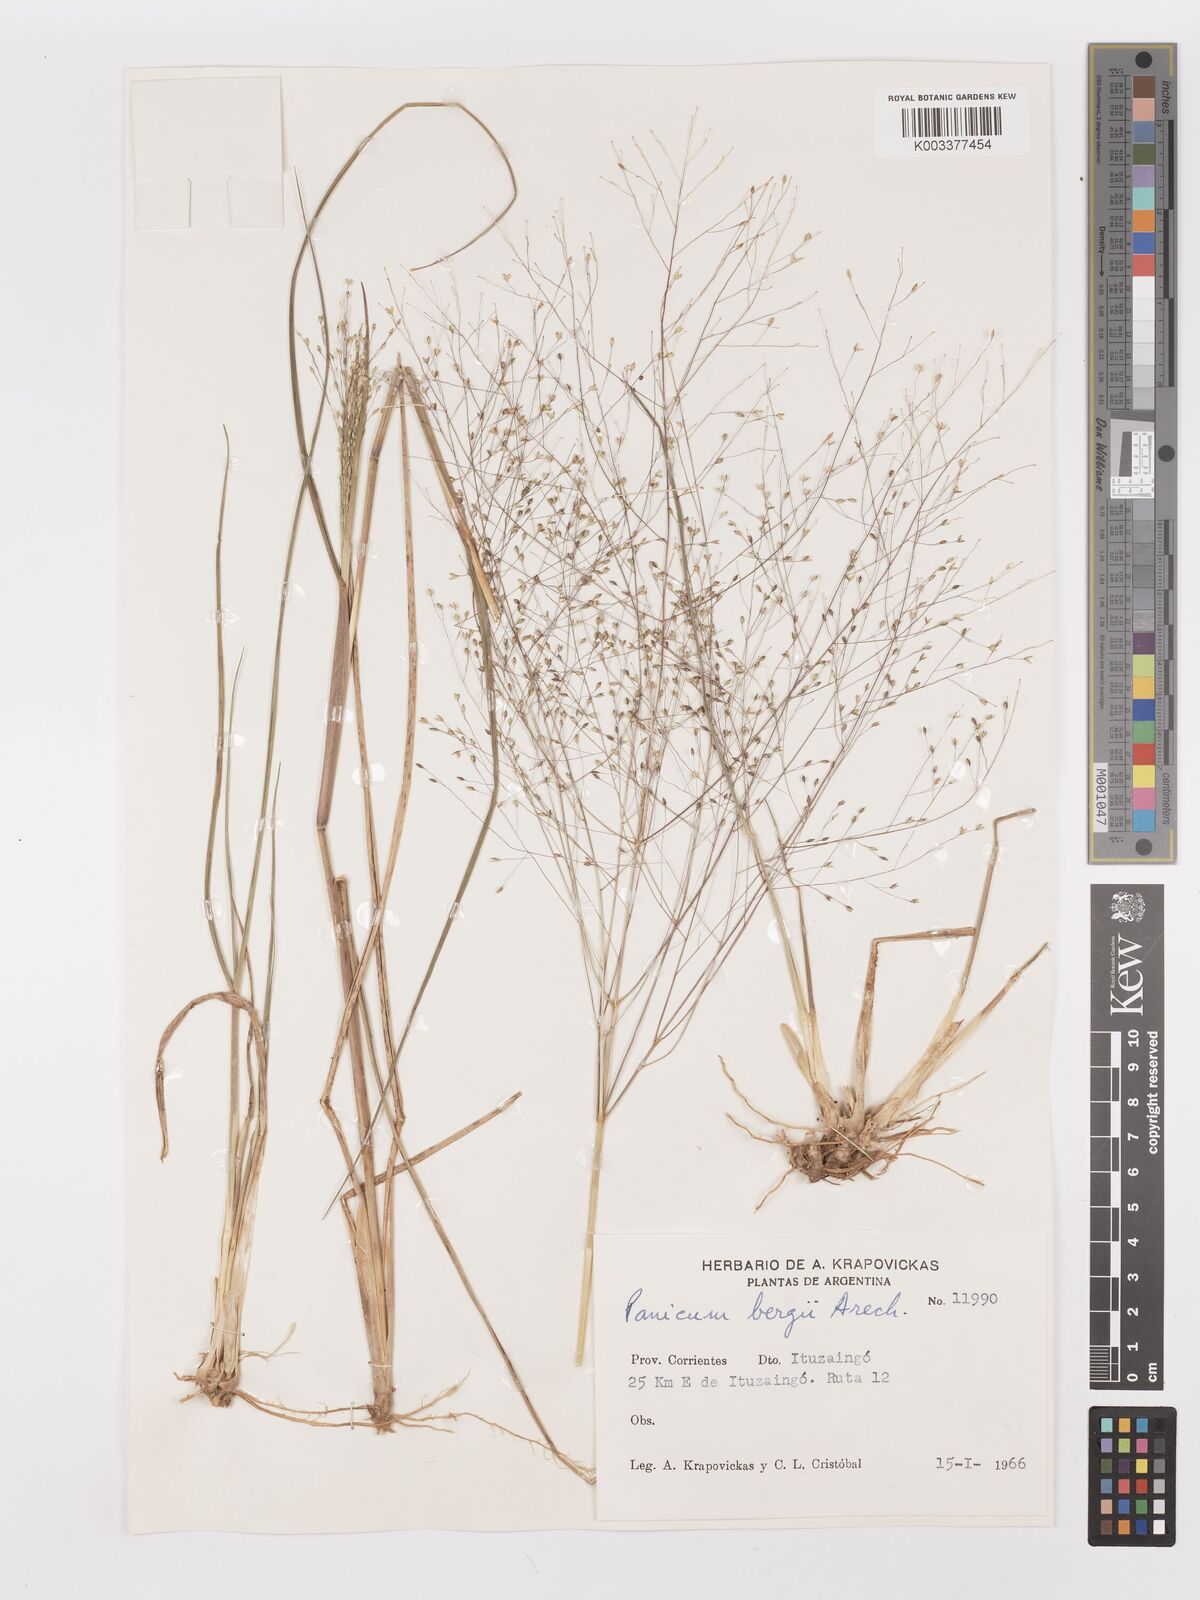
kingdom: Plantae
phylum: Tracheophyta
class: Liliopsida
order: Poales
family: Poaceae
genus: Panicum
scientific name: Panicum bergii
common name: Berg's panicgrass
